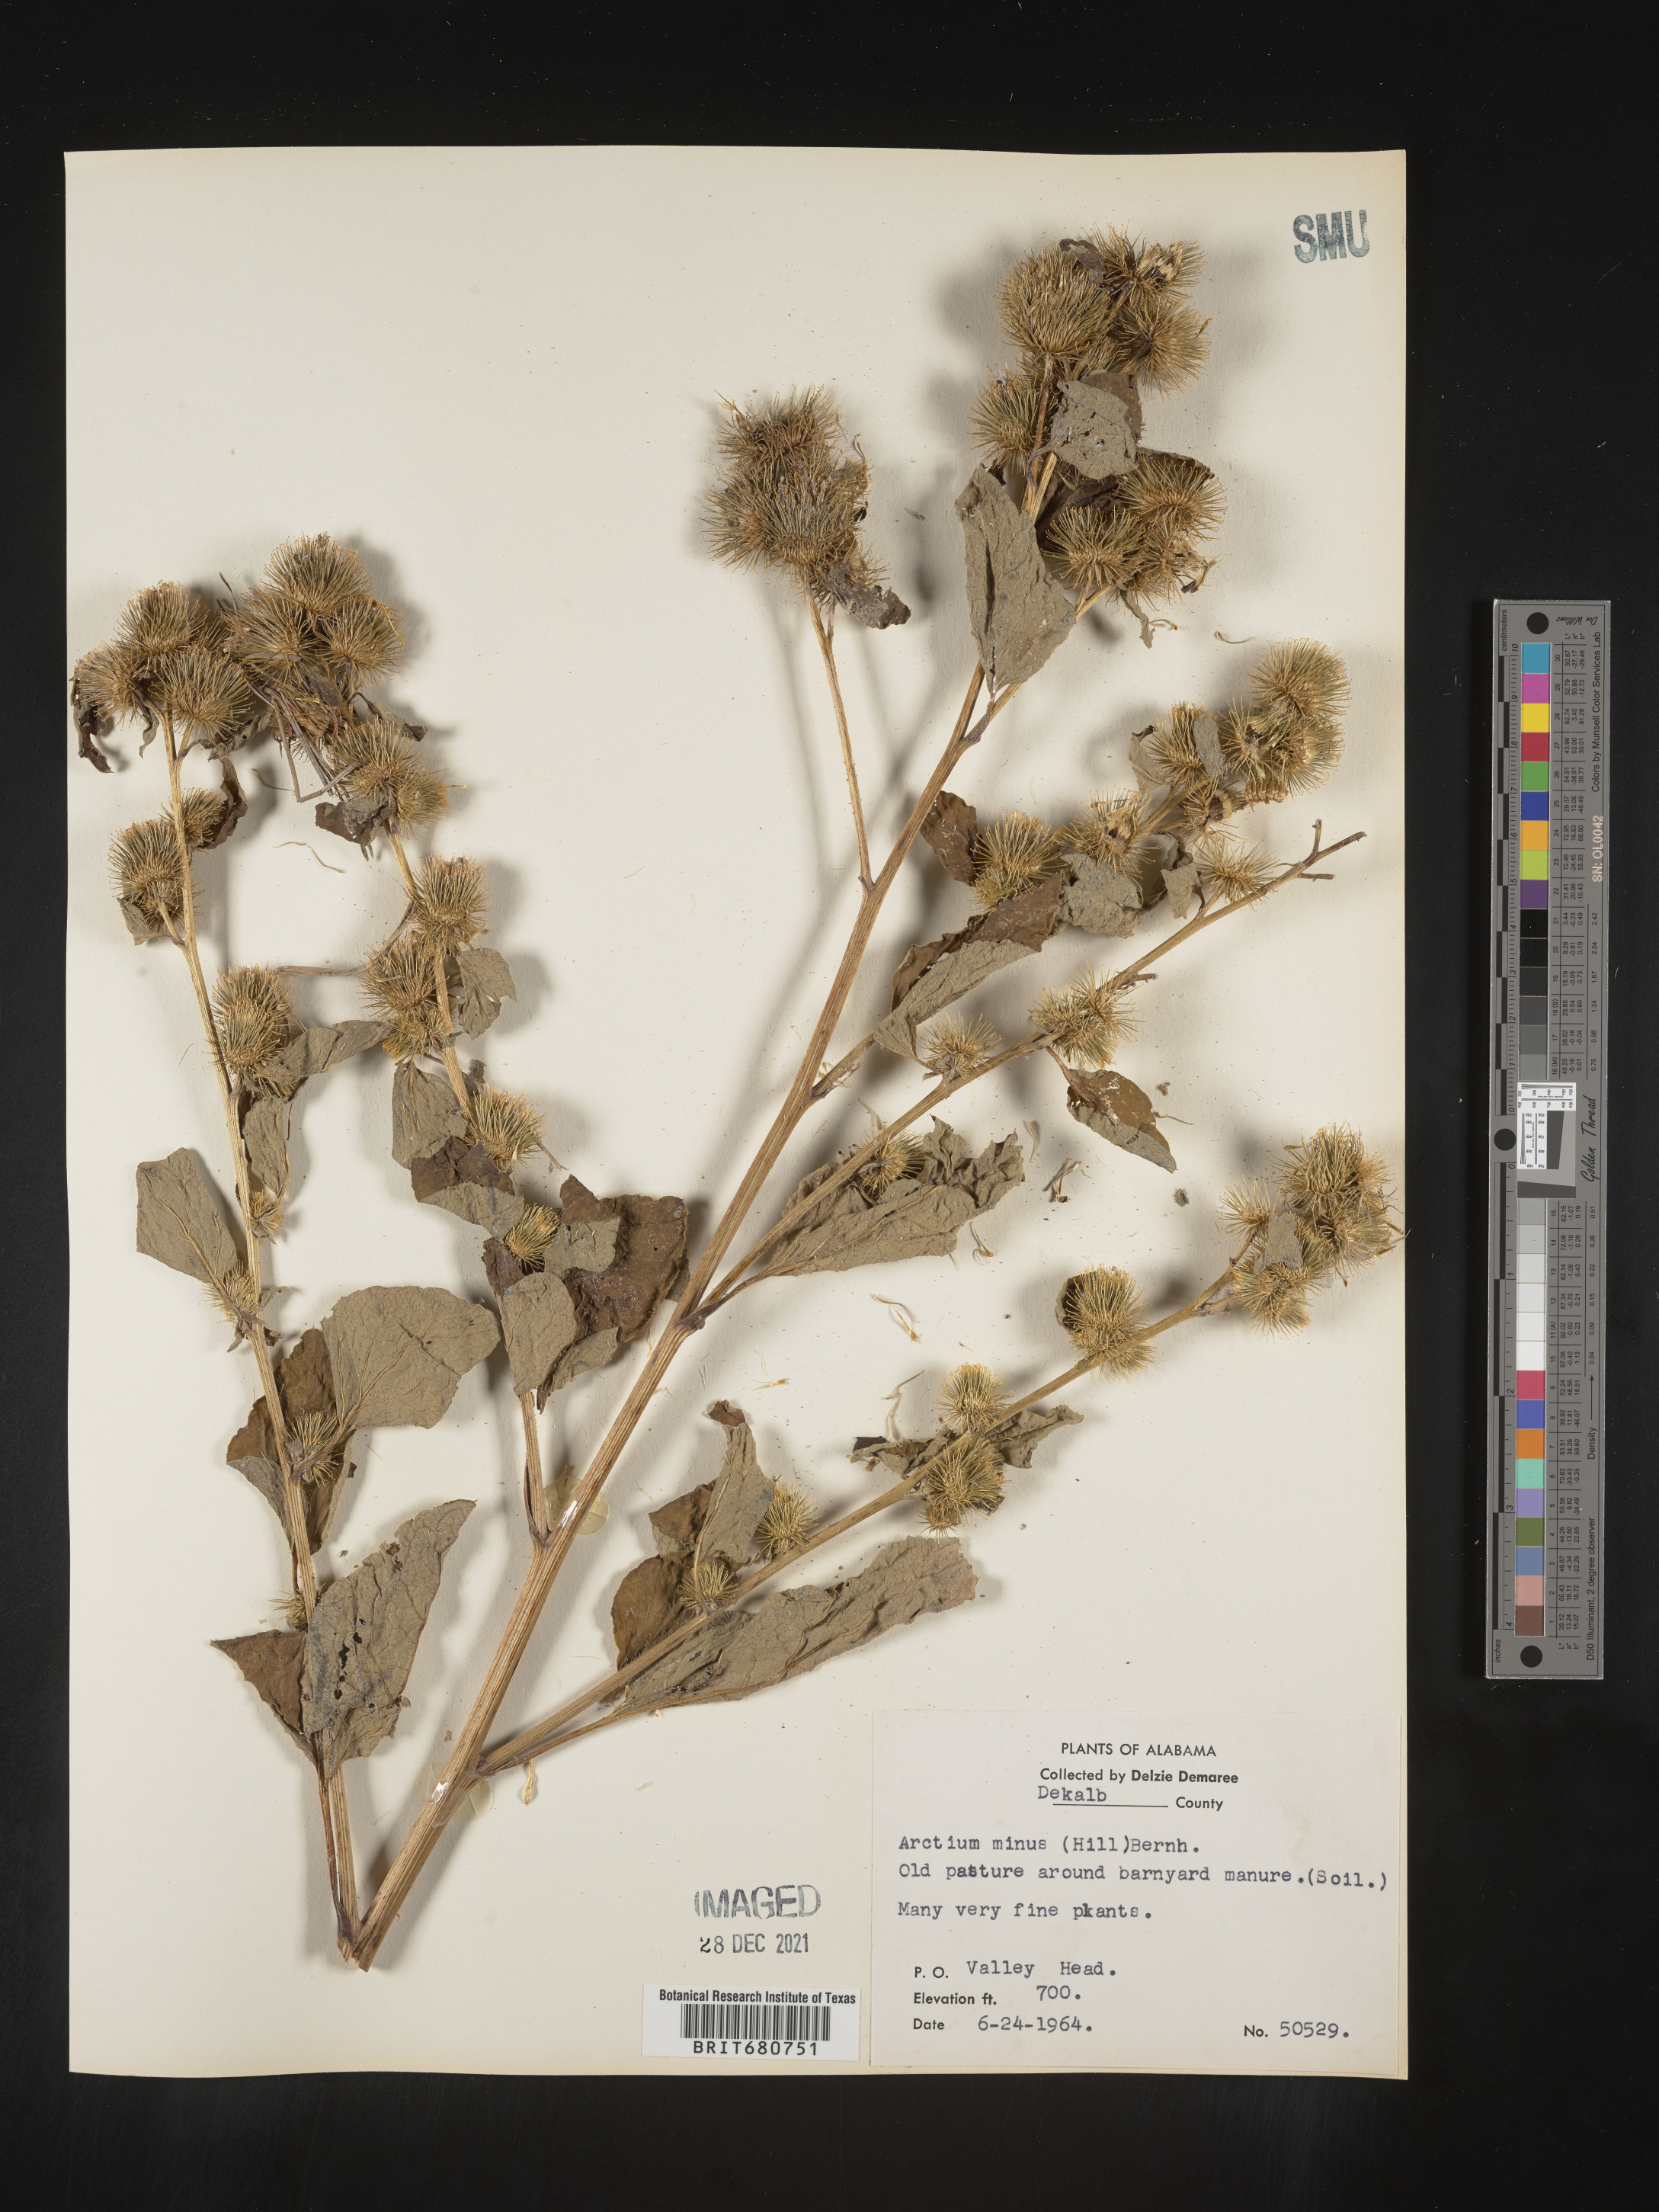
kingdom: Plantae
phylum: Tracheophyta
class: Magnoliopsida
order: Asterales
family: Asteraceae
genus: Arctium
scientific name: Arctium minus
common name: Lesser burdock
